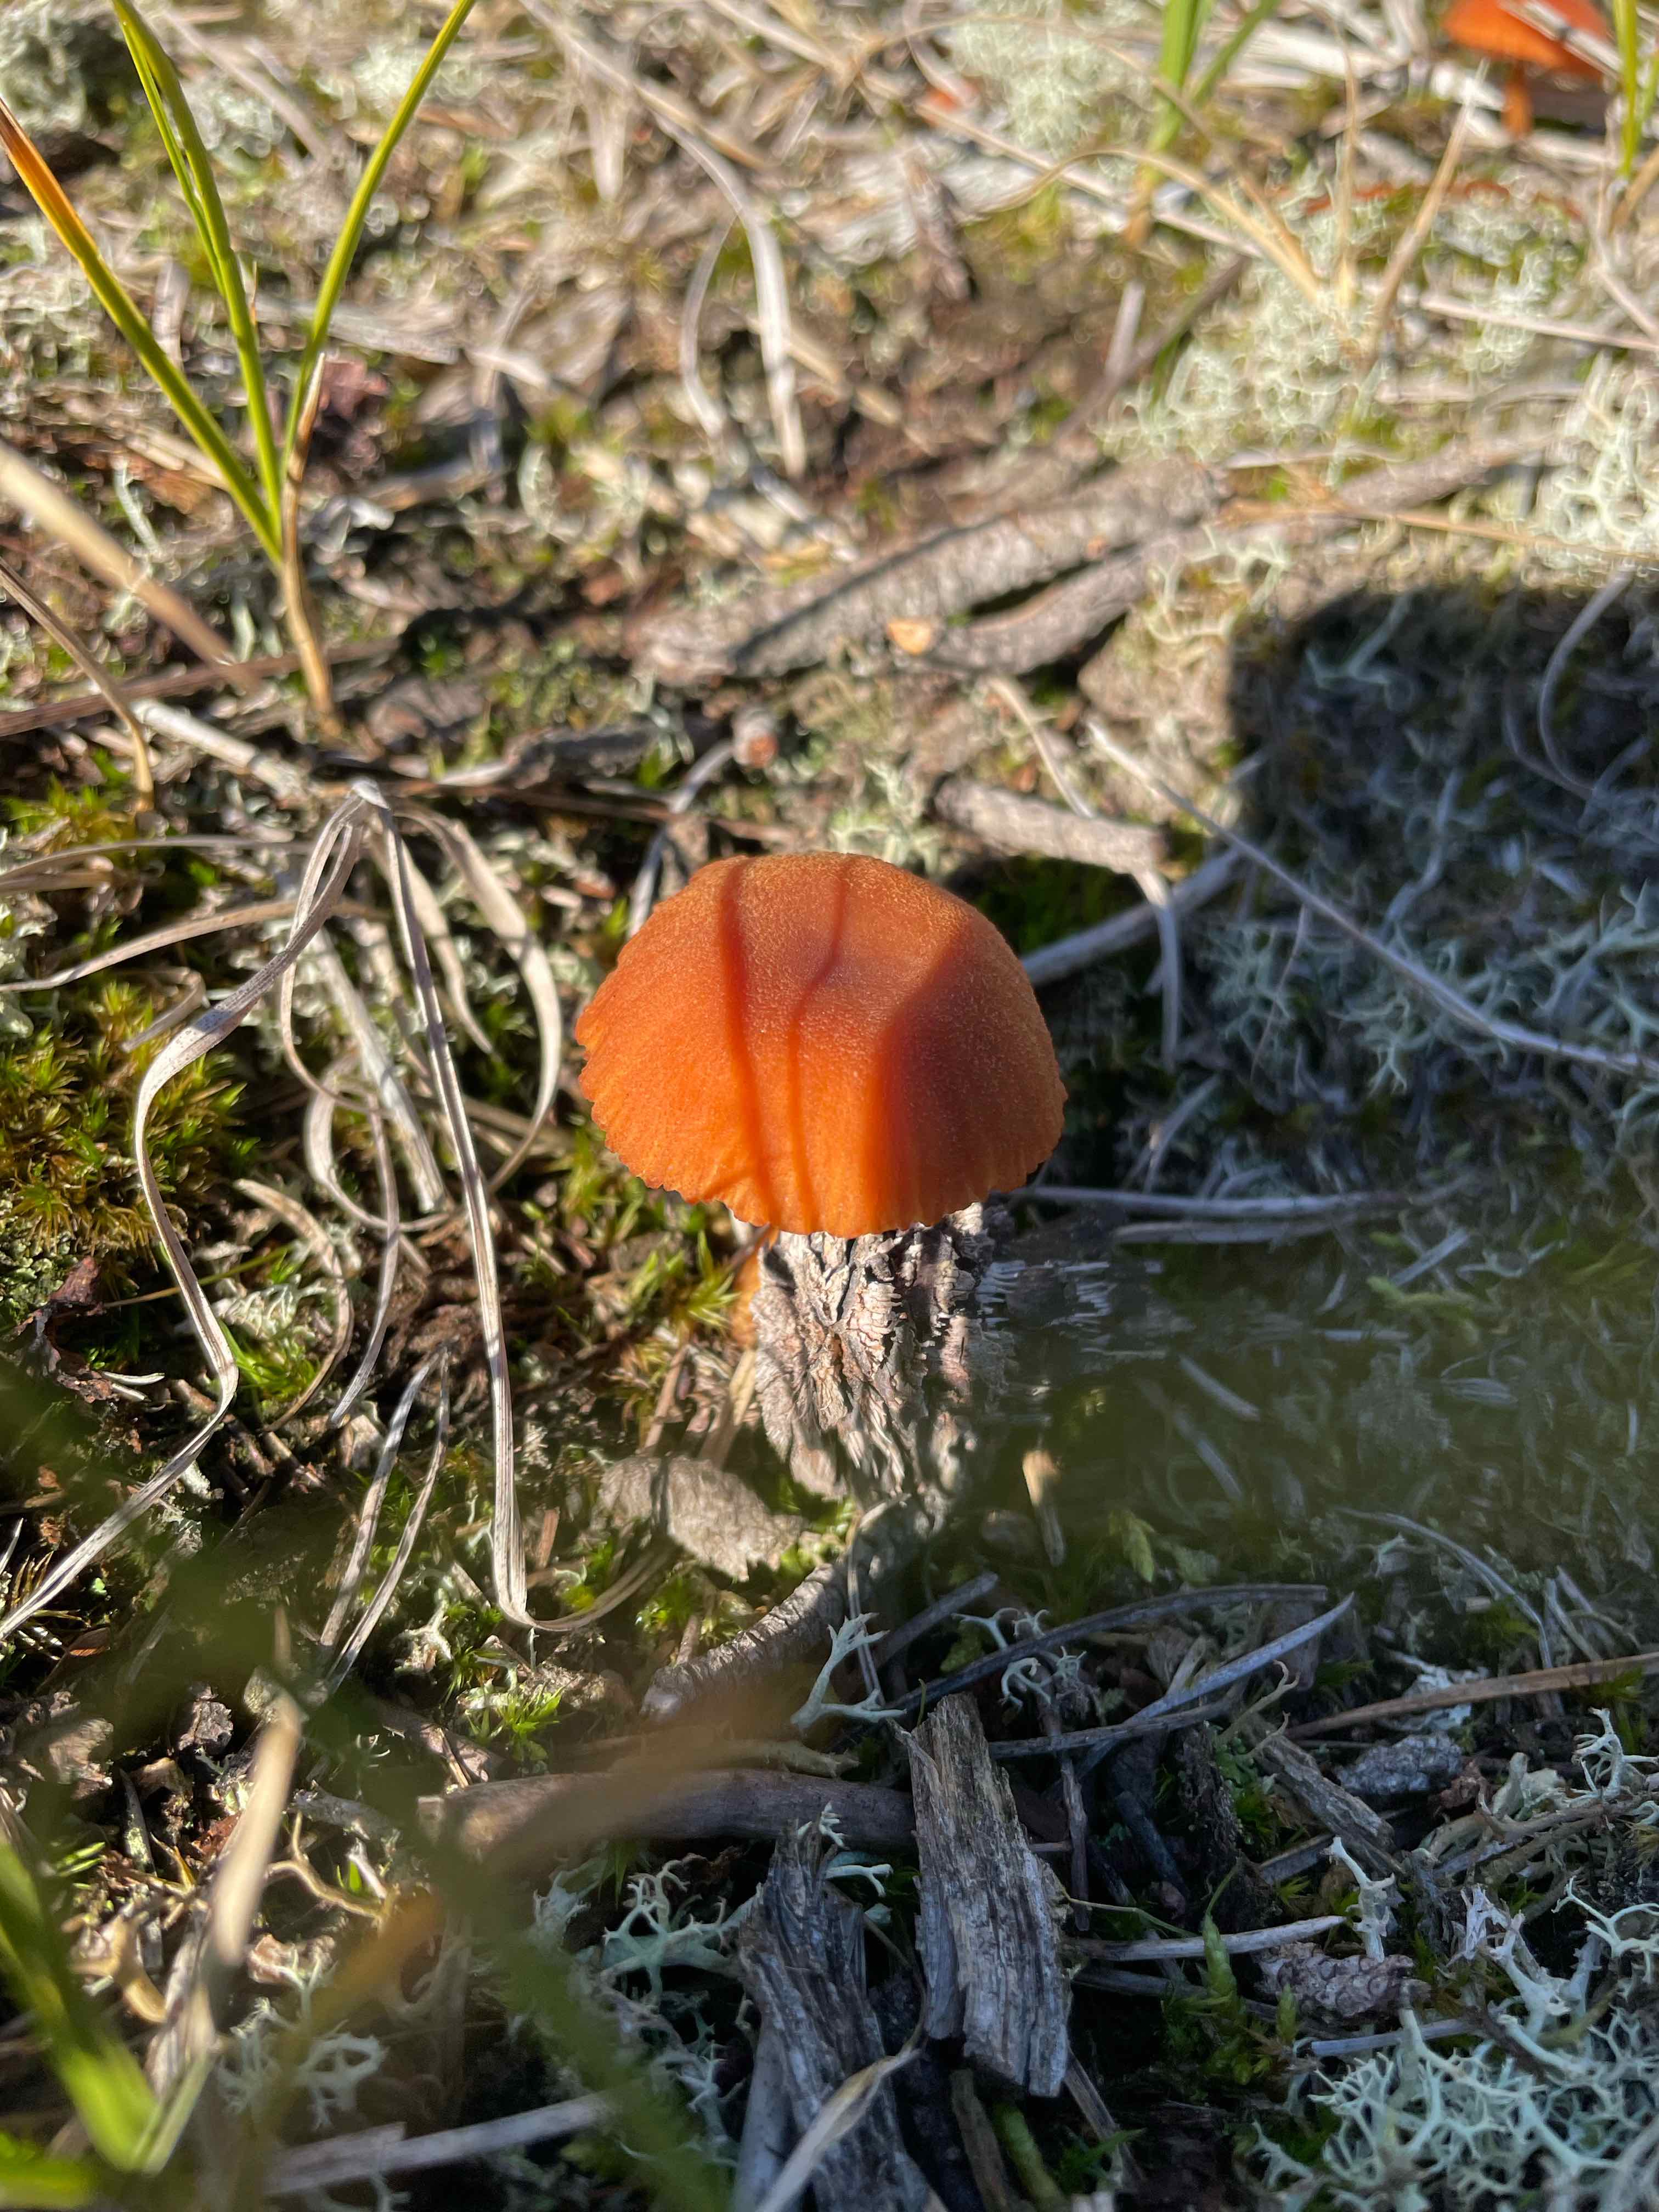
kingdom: Fungi
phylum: Basidiomycota
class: Agaricomycetes
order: Agaricales
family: Hydnangiaceae
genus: Laccaria
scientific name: Laccaria
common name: ametysthat
